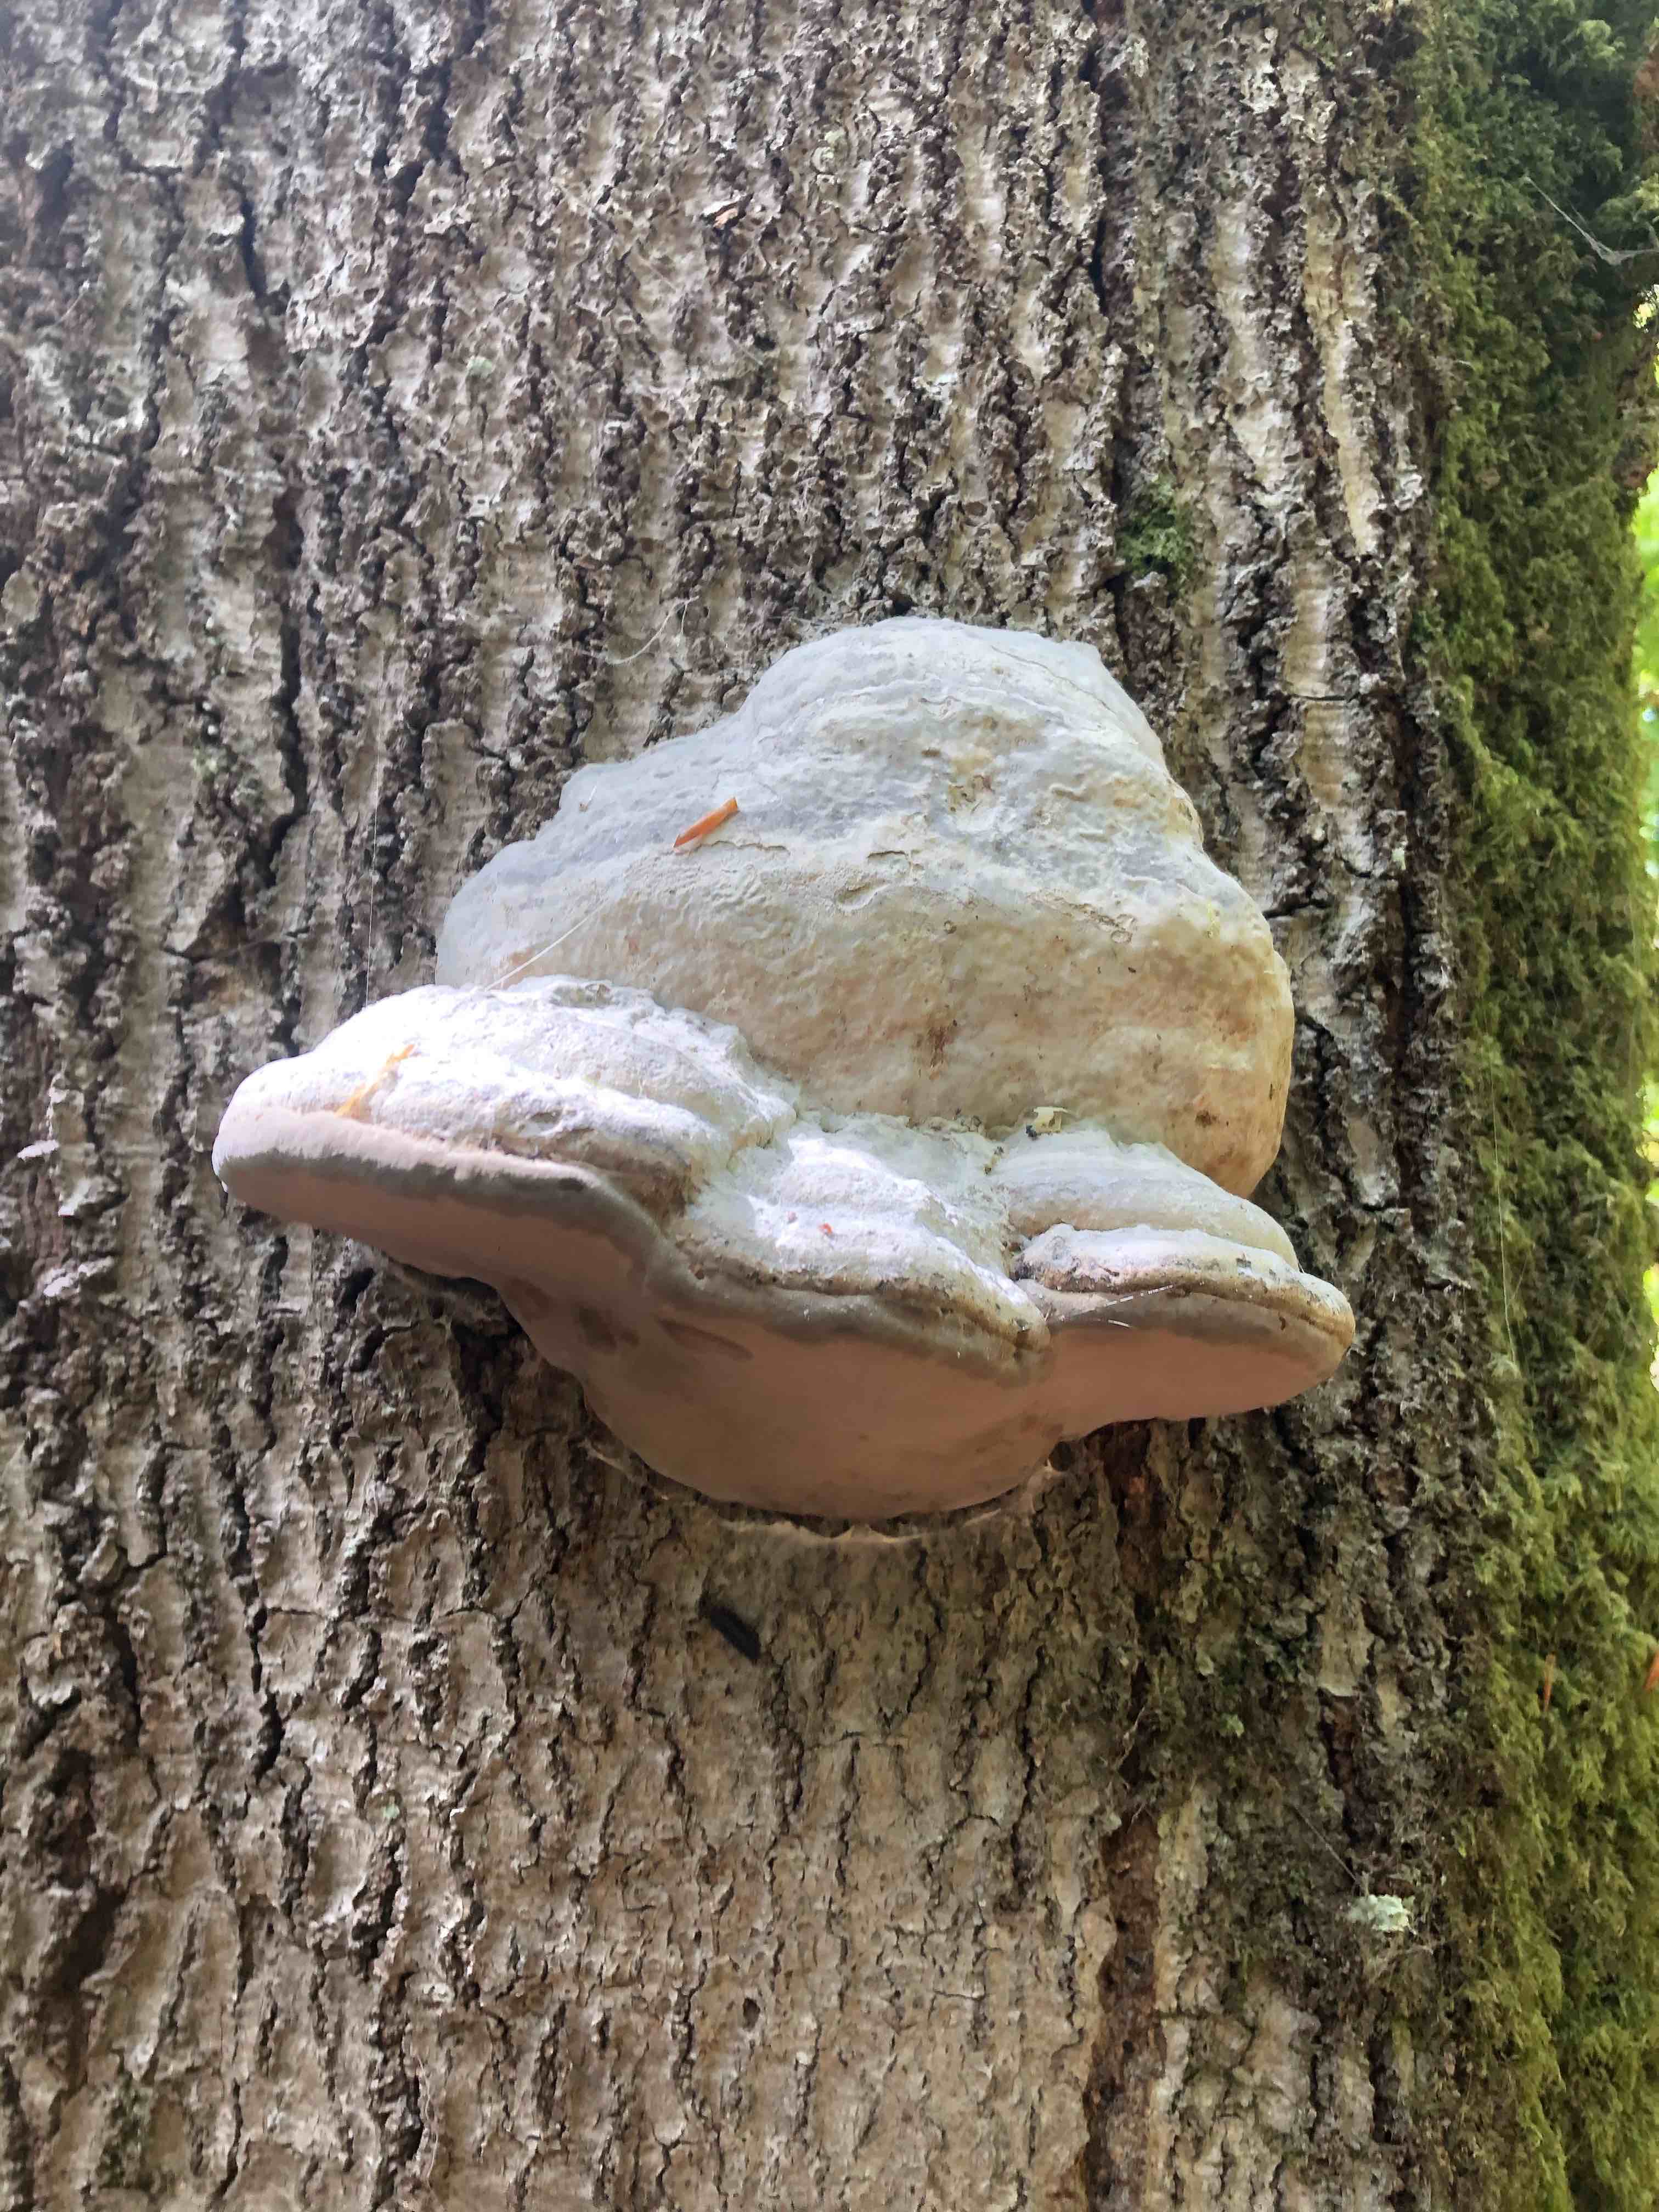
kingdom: Fungi
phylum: Basidiomycota
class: Agaricomycetes
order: Polyporales
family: Polyporaceae
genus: Fomes
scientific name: Fomes fomentarius
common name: tøndersvamp
